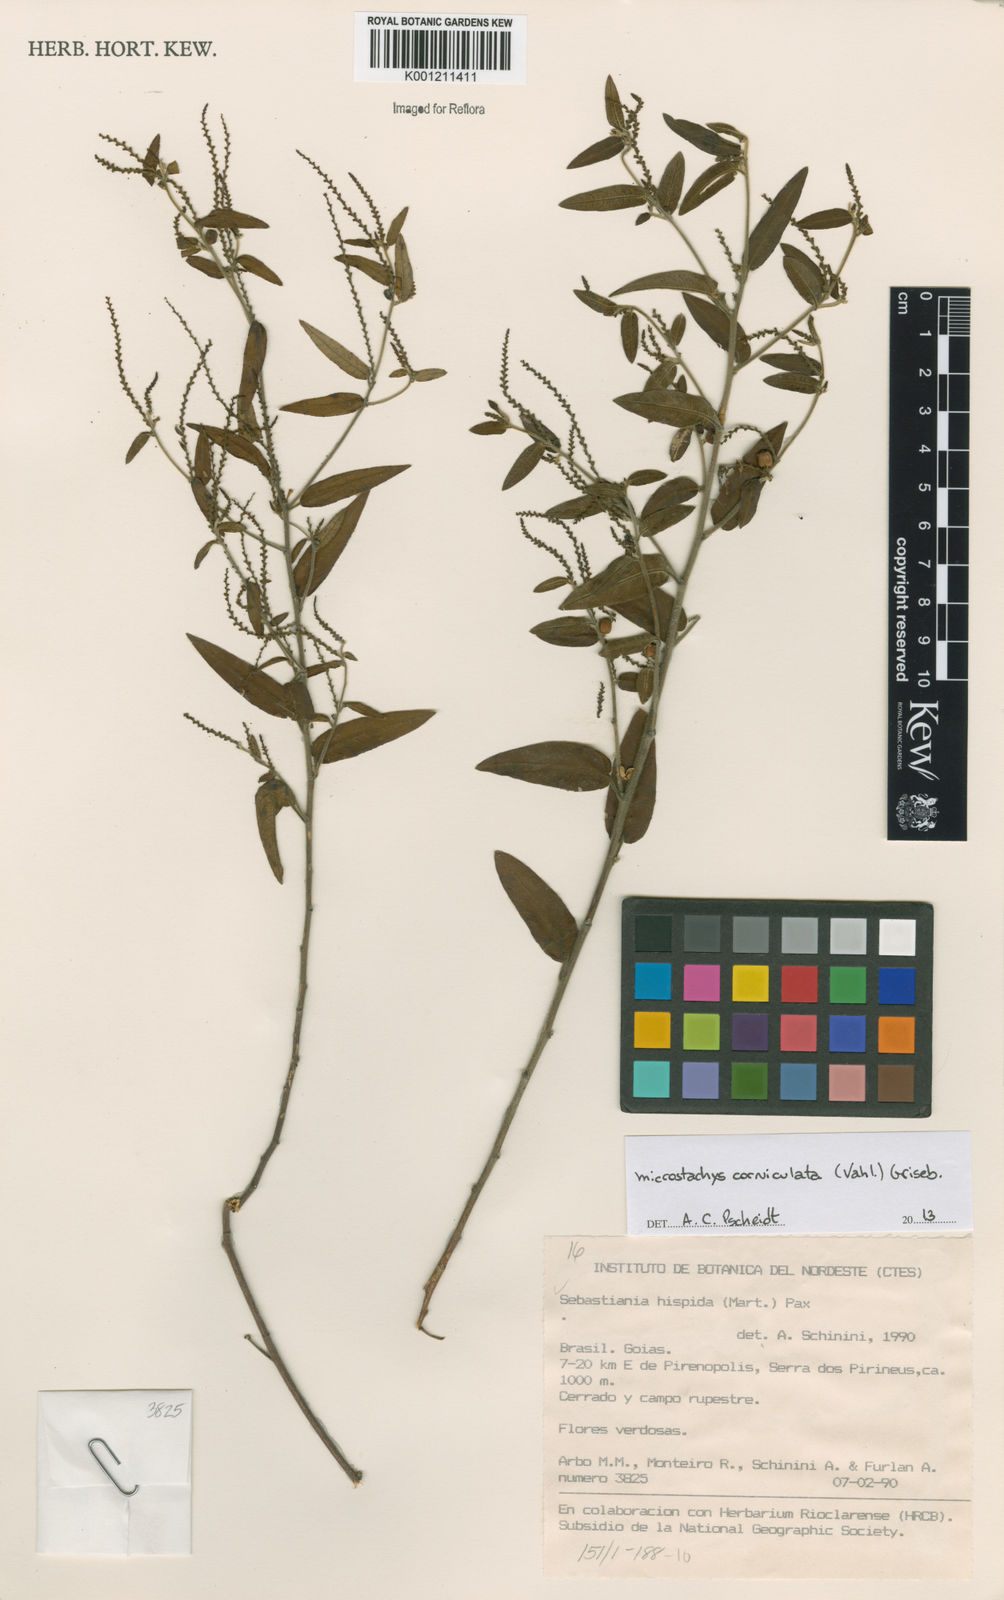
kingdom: Plantae
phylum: Tracheophyta
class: Magnoliopsida
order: Malpighiales
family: Euphorbiaceae
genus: Microstachys
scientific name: Microstachys corniculata
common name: Hato tejas
